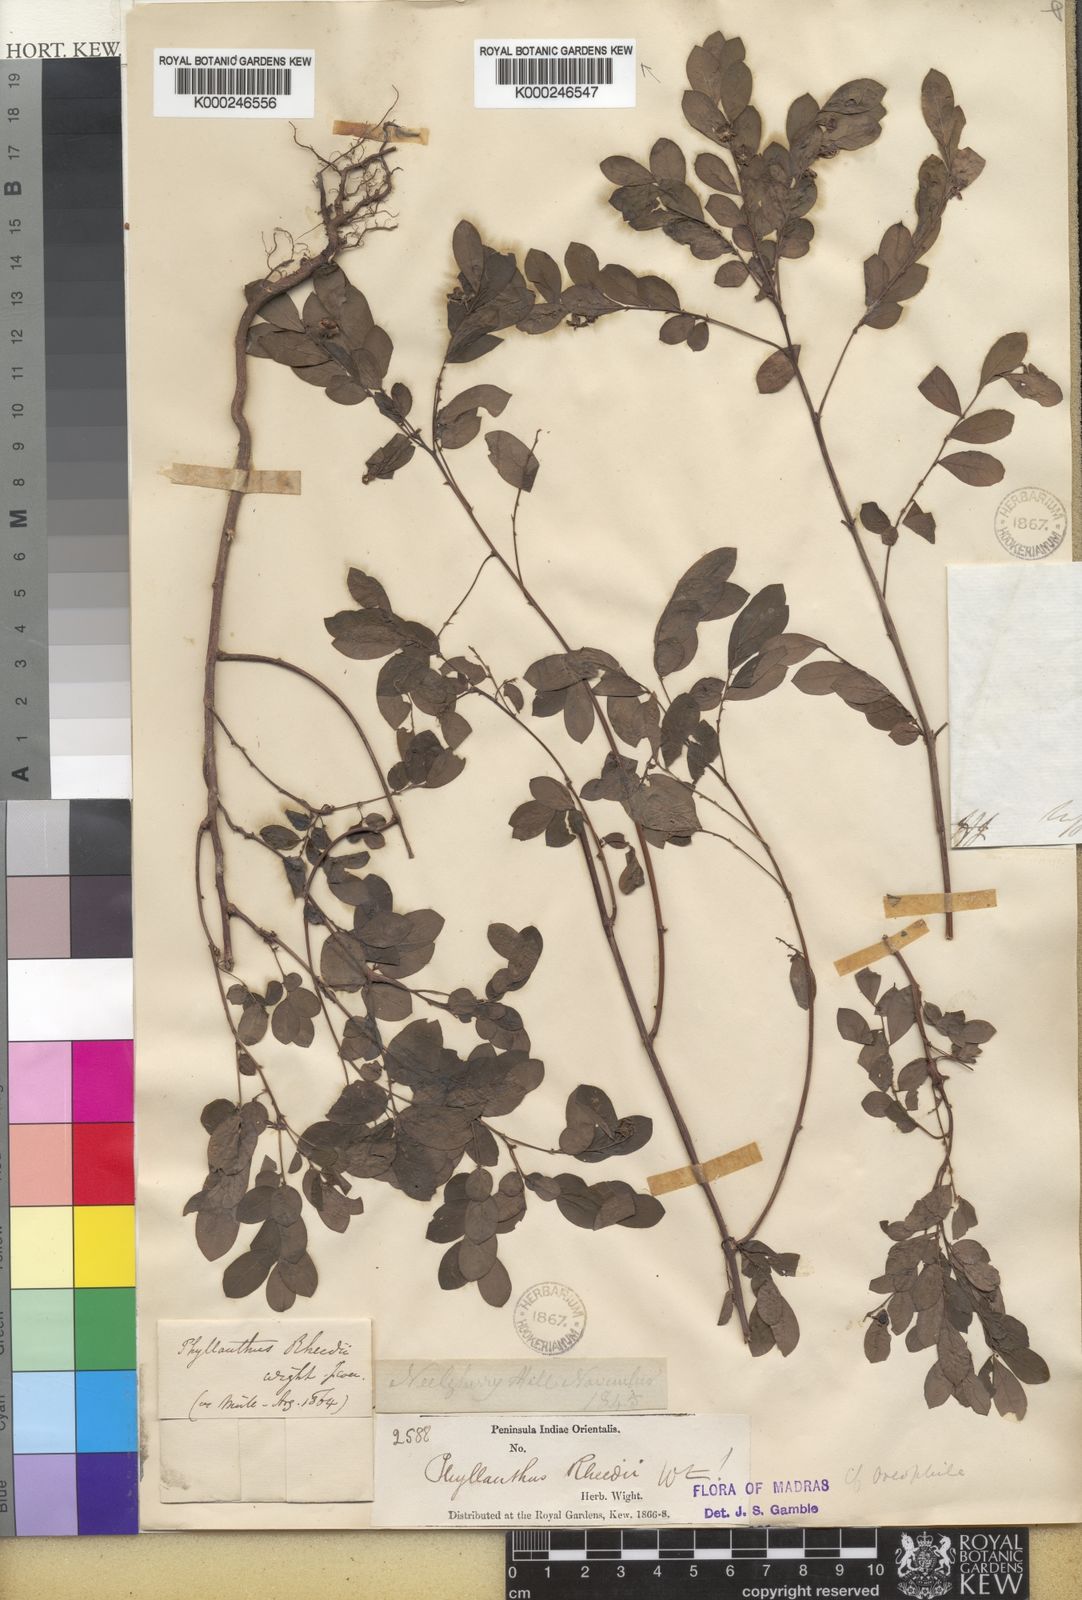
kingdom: Plantae
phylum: Tracheophyta
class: Magnoliopsida
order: Malpighiales
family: Phyllanthaceae
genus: Phyllanthus
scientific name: Phyllanthus rheedei
